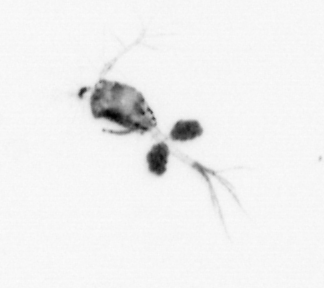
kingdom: Animalia
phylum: Arthropoda
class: Copepoda
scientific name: Copepoda
